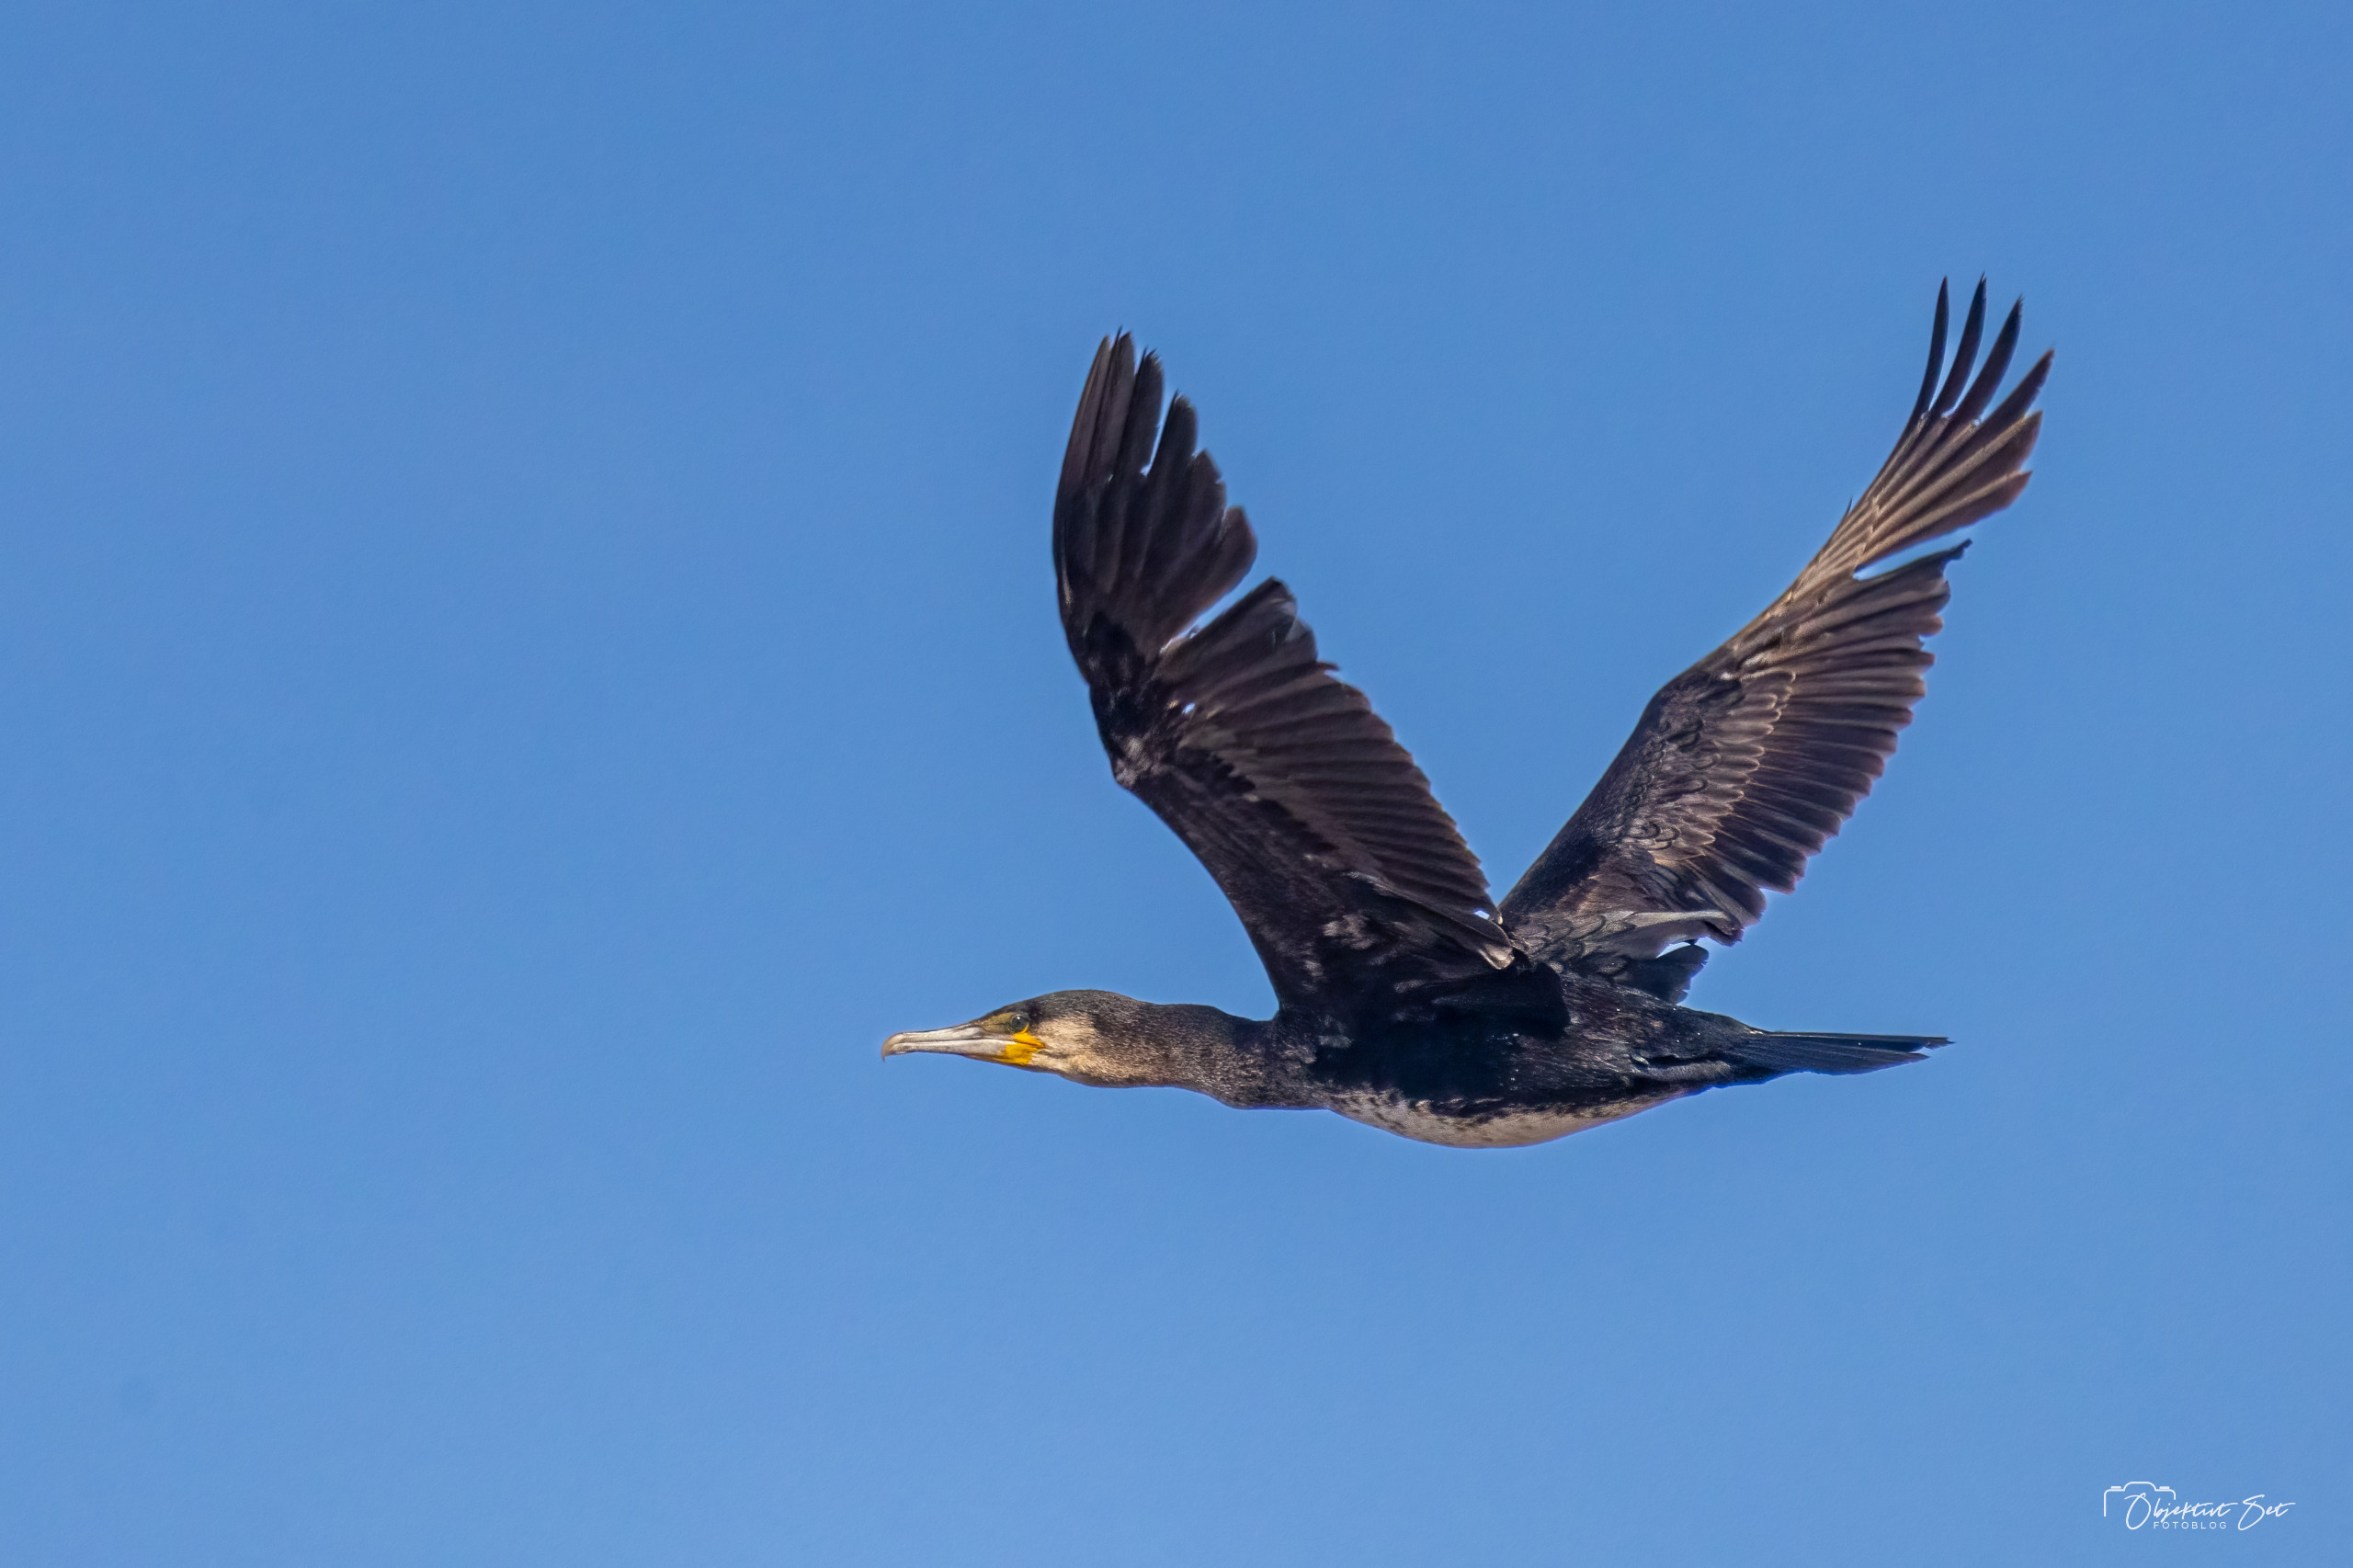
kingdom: Animalia
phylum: Chordata
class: Aves
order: Suliformes
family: Phalacrocoracidae
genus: Phalacrocorax
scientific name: Phalacrocorax carbo
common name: Skarv
